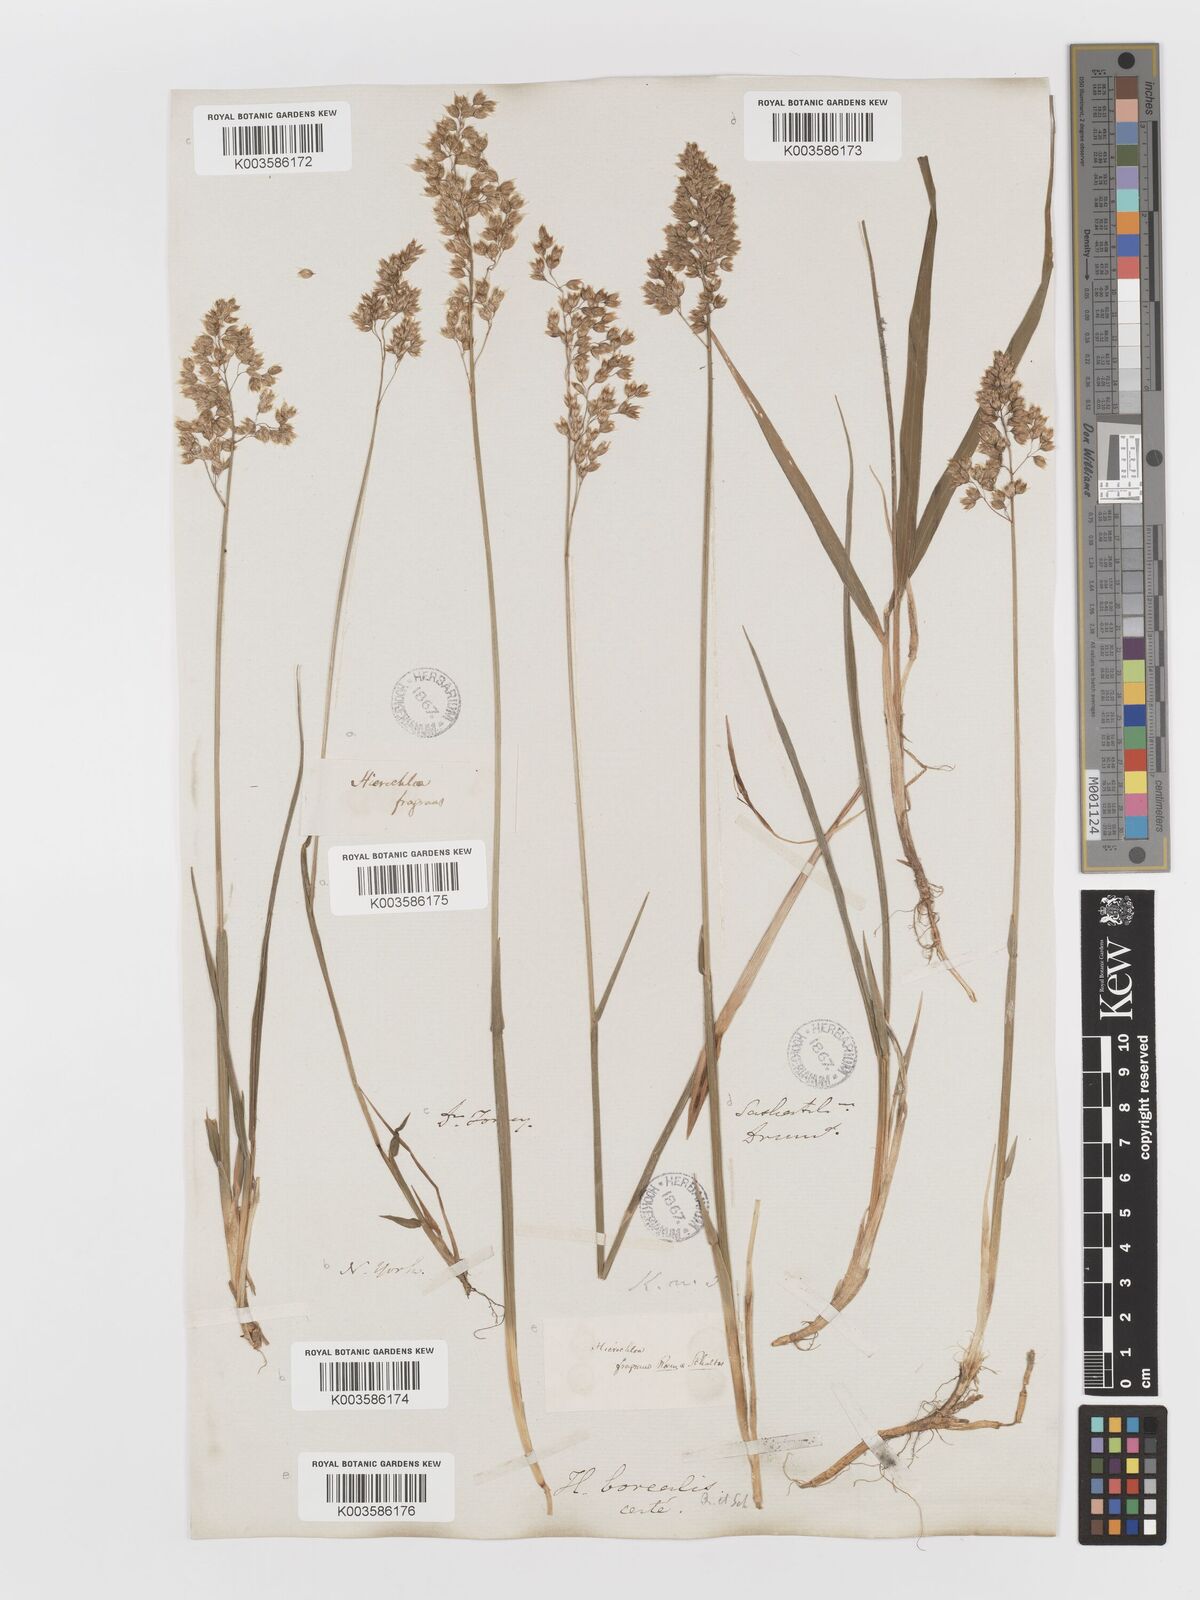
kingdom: Plantae
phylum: Tracheophyta
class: Liliopsida
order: Poales
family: Poaceae
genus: Anthoxanthum
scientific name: Anthoxanthum nitens
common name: Holy grass
